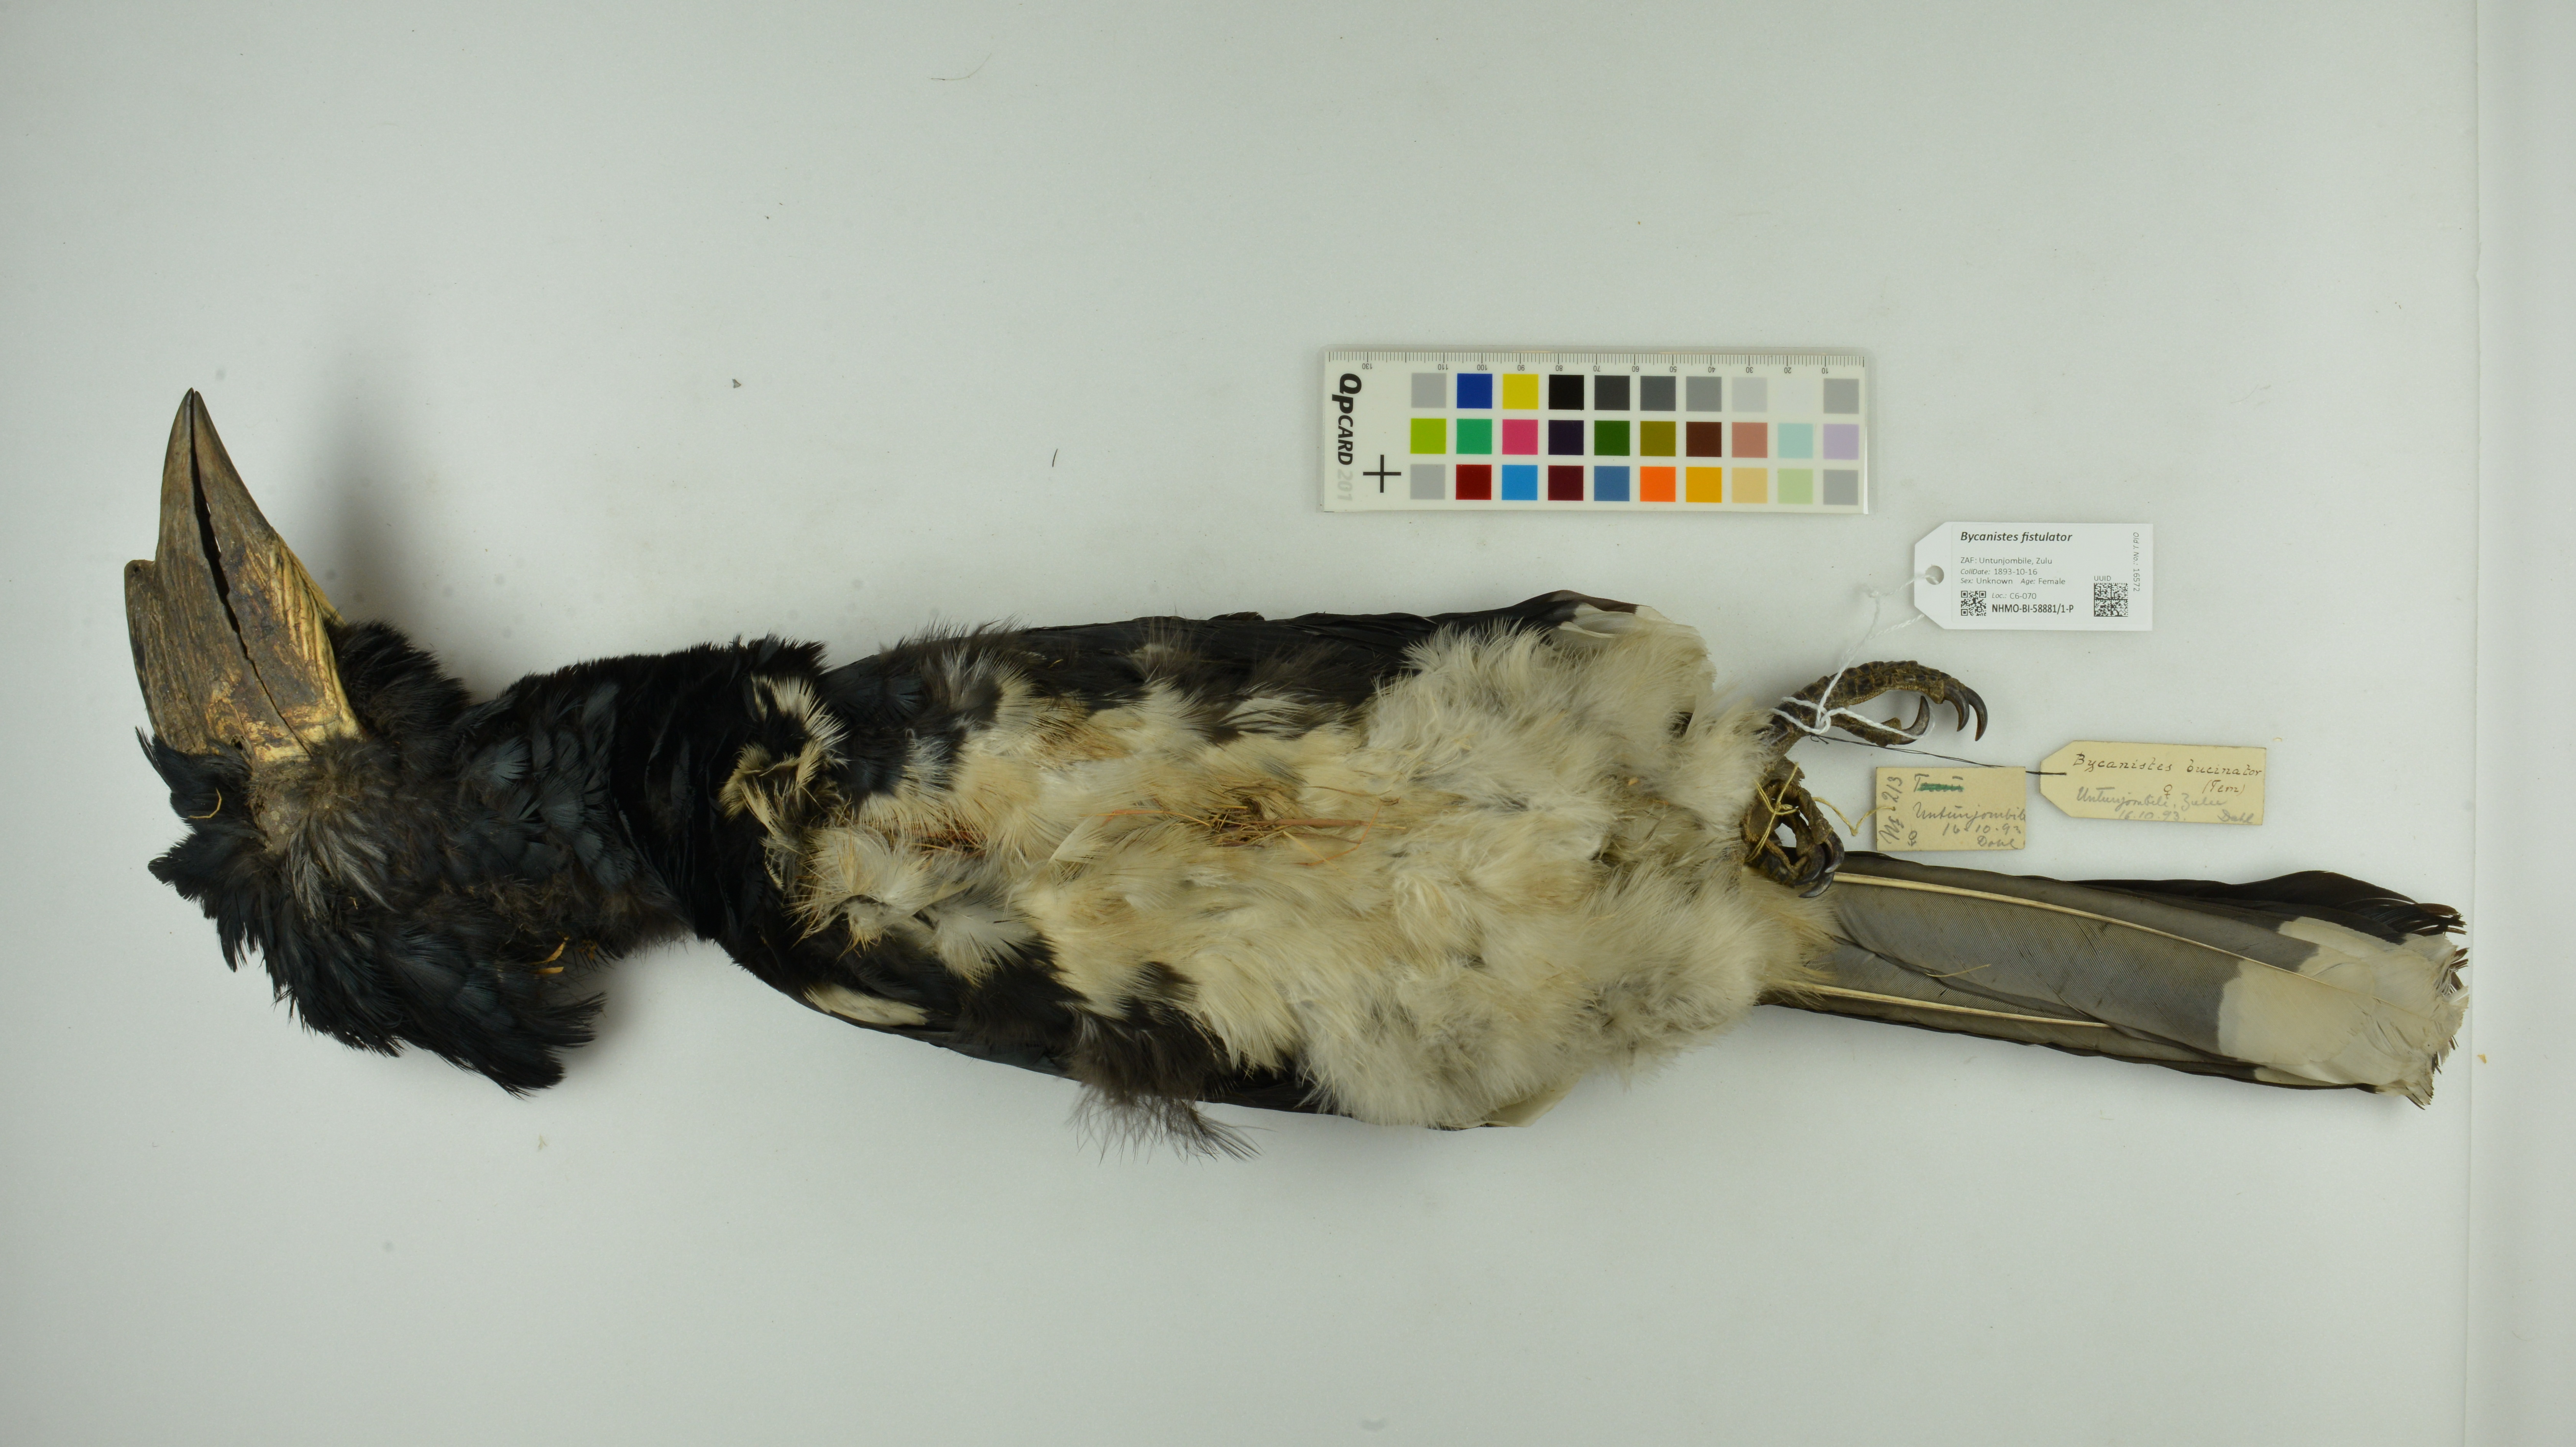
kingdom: Animalia
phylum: Chordata
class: Aves
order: Bucerotiformes
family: Bucerotidae
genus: Bycanistes
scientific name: Bycanistes fistulator
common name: Piping hornbill
